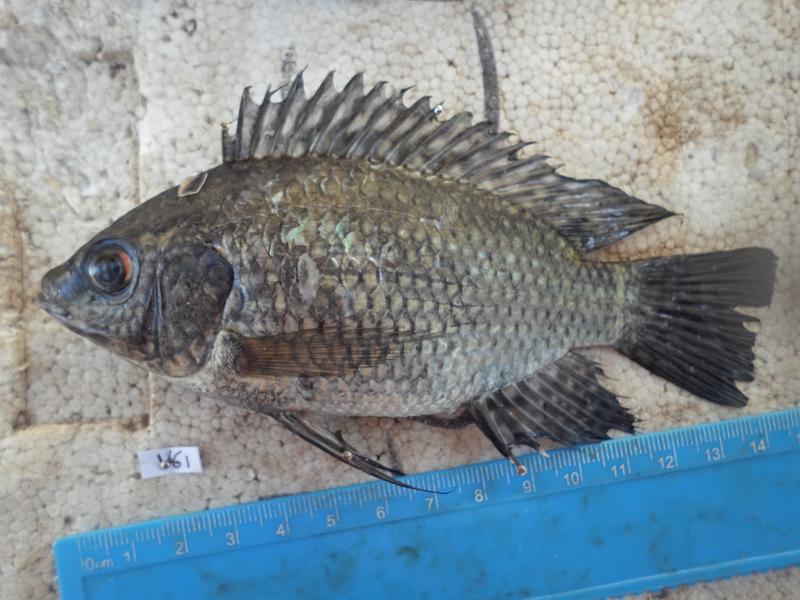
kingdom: Animalia
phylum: Chordata
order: Perciformes
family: Cichlidae
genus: Oreochromis
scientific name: Oreochromis leucostictus
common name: Blue spotted tilapia
